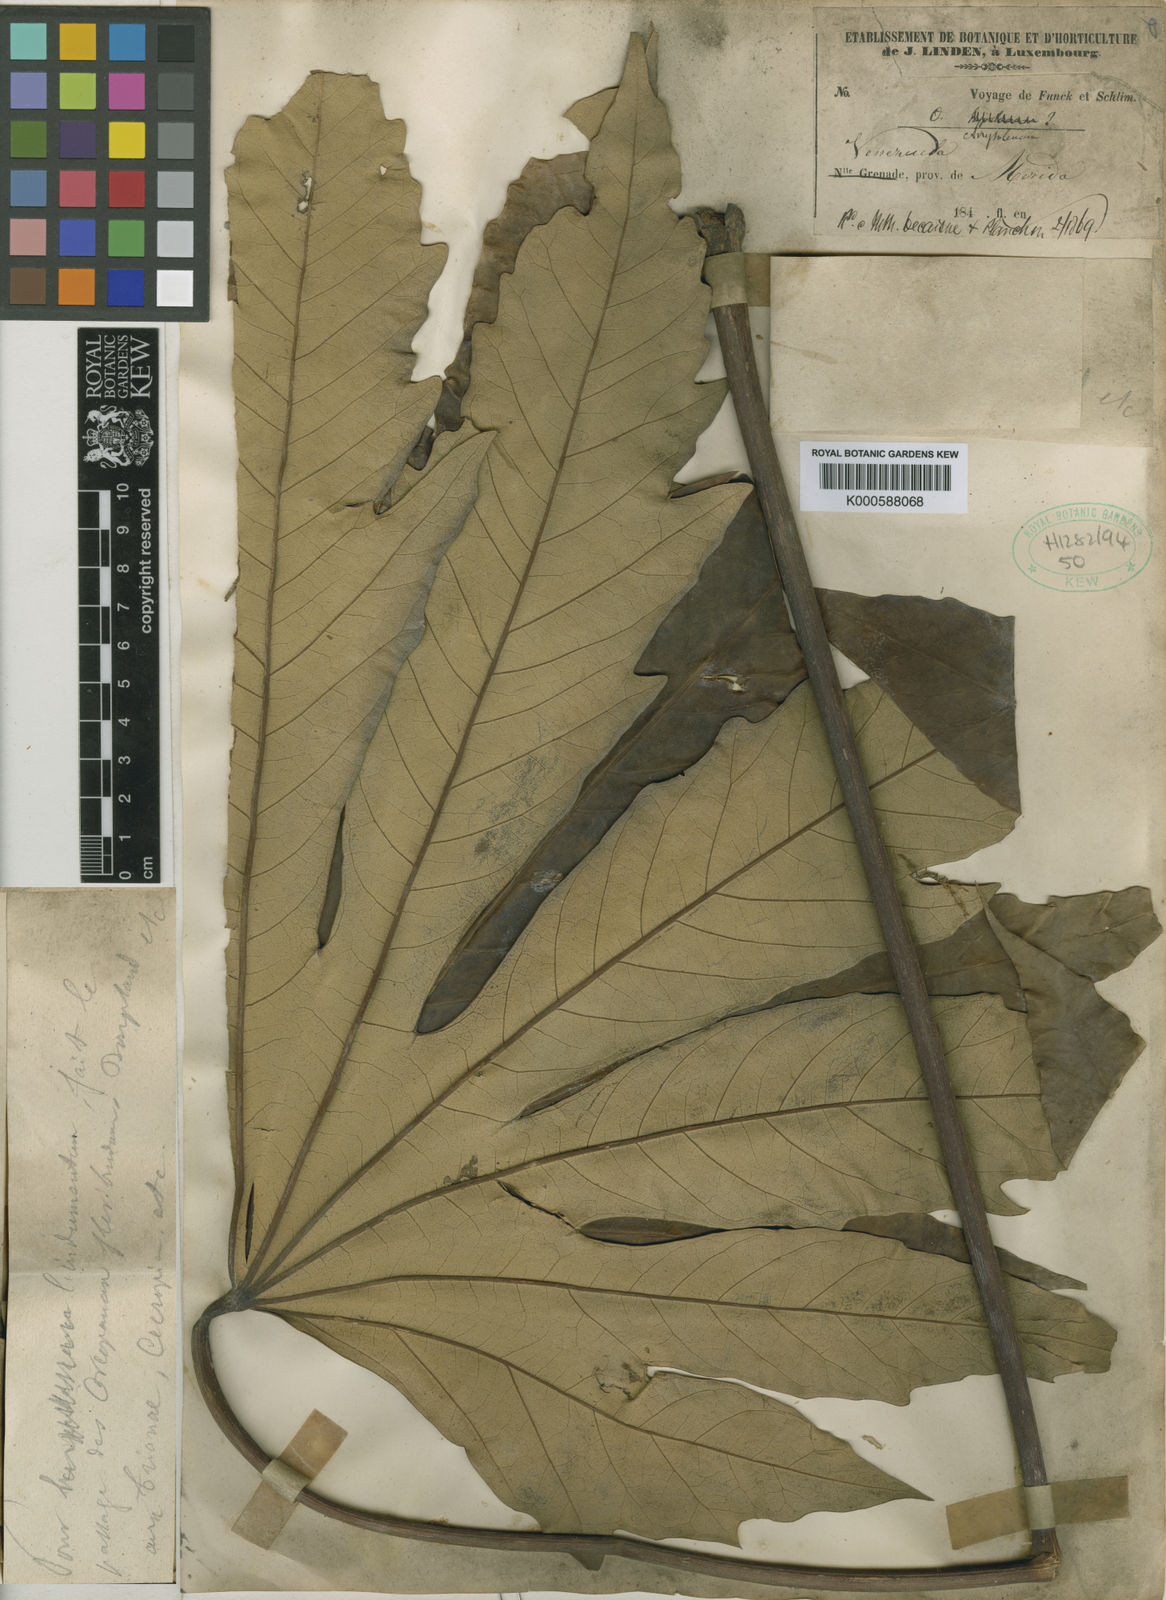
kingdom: Plantae
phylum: Tracheophyta
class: Magnoliopsida
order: Apiales
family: Araliaceae
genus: Oreopanax
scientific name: Oreopanax discolor
